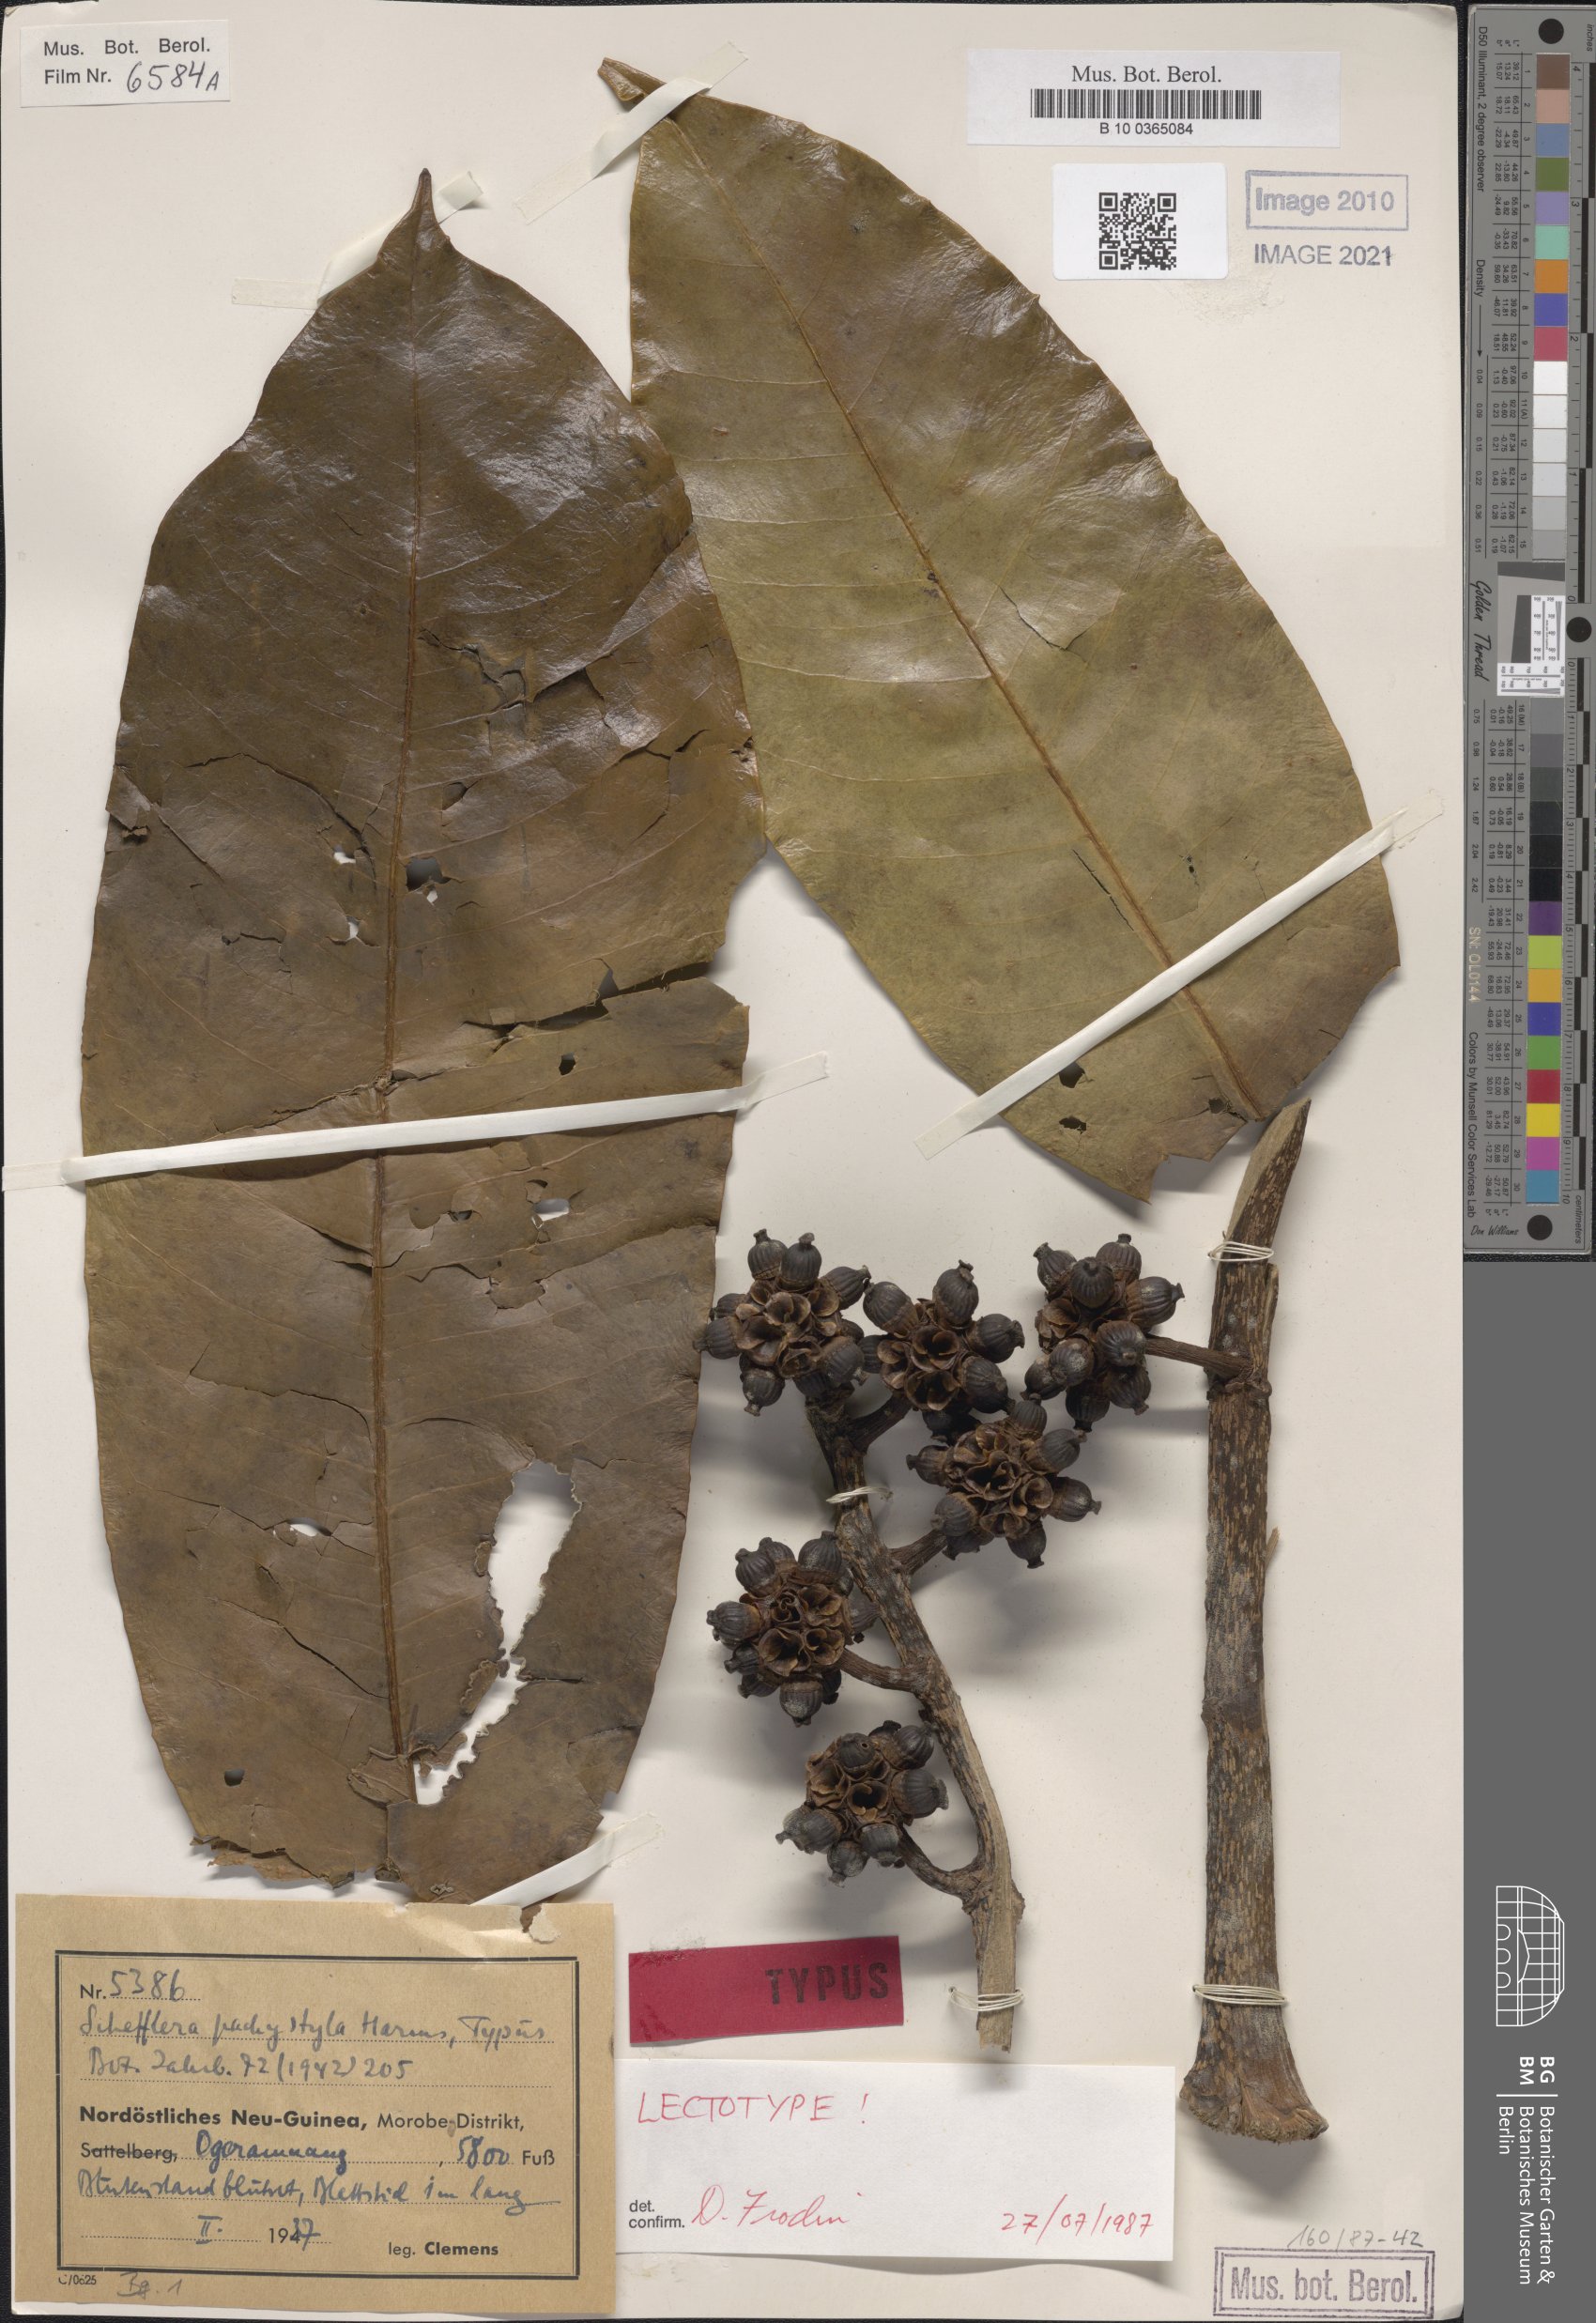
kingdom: Plantae
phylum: Tracheophyta
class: Magnoliopsida
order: Apiales
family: Araliaceae
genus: Heptapleurum
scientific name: Heptapleurum pachystylum
